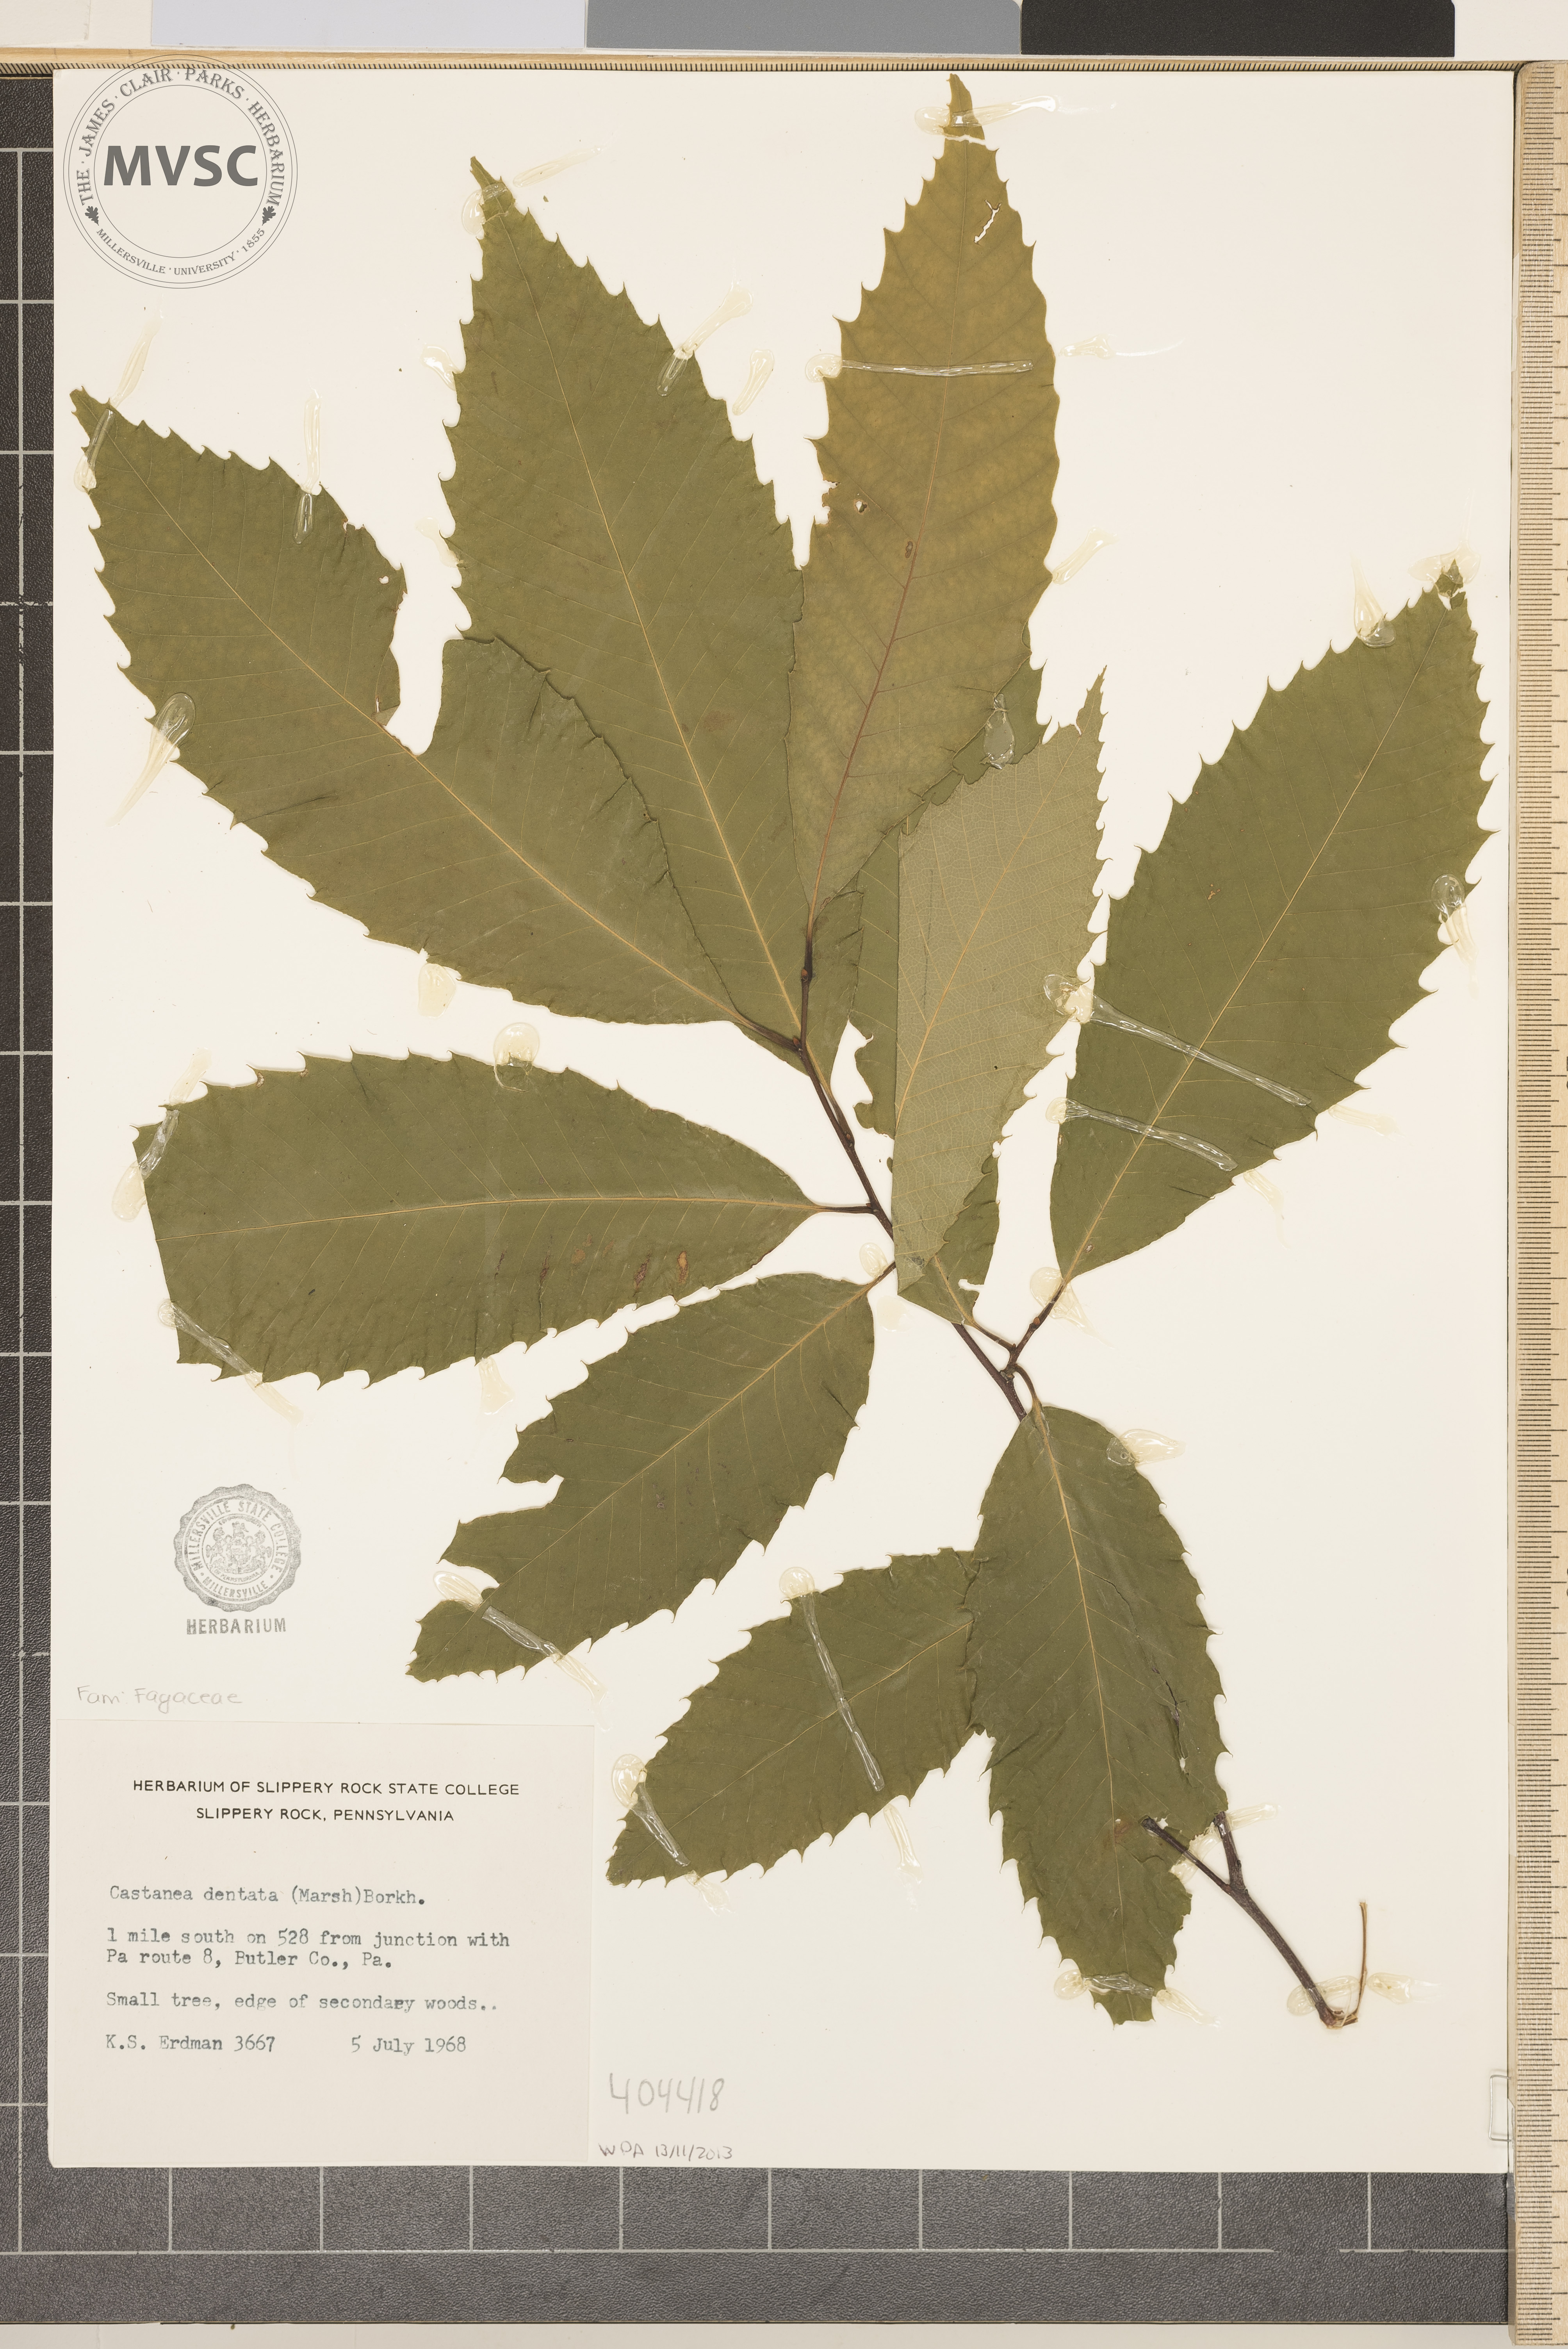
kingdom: Plantae
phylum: Tracheophyta
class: Magnoliopsida
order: Fagales
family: Fagaceae
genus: Castanea
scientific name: Castanea dentata
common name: American chestnut
